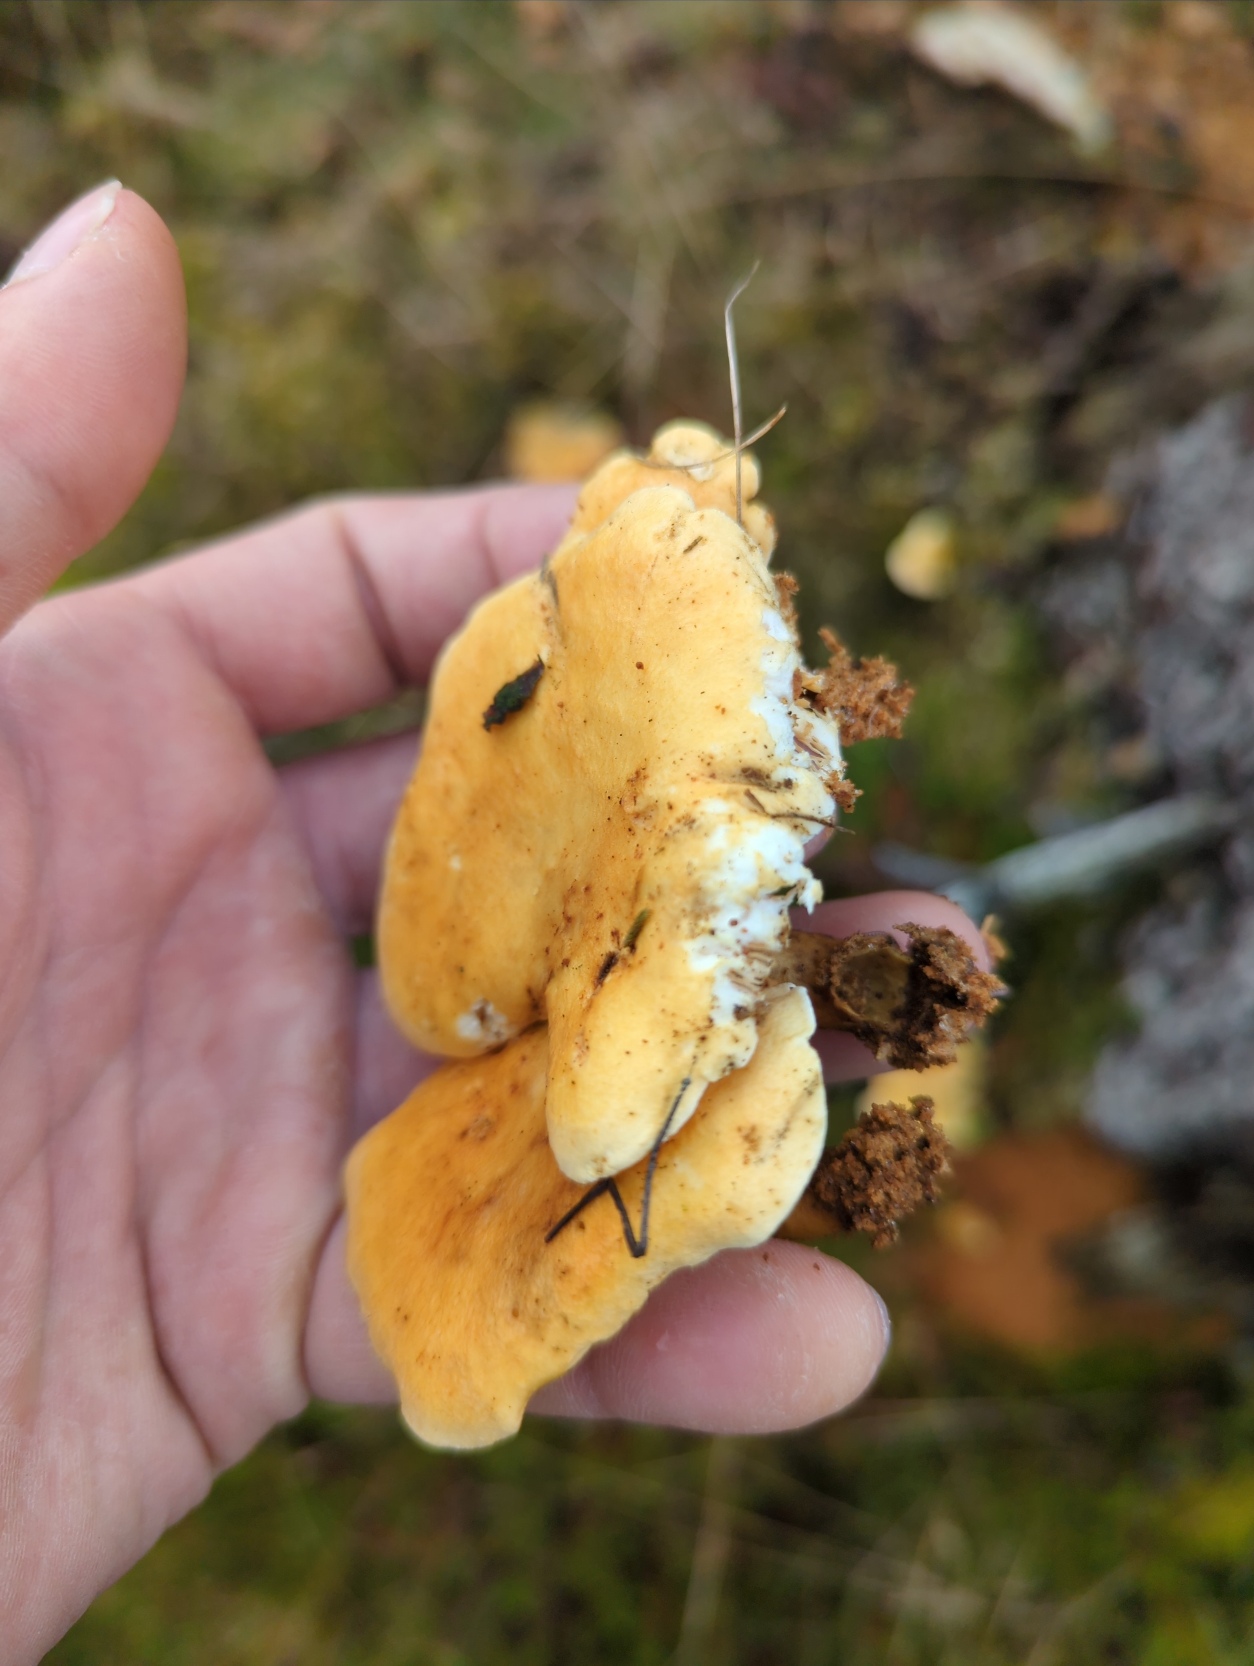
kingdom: Fungi
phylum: Basidiomycota
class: Agaricomycetes
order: Boletales
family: Hygrophoropsidaceae
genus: Hygrophoropsis
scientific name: Hygrophoropsis aurantiaca
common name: Almindelig orangekantarel
